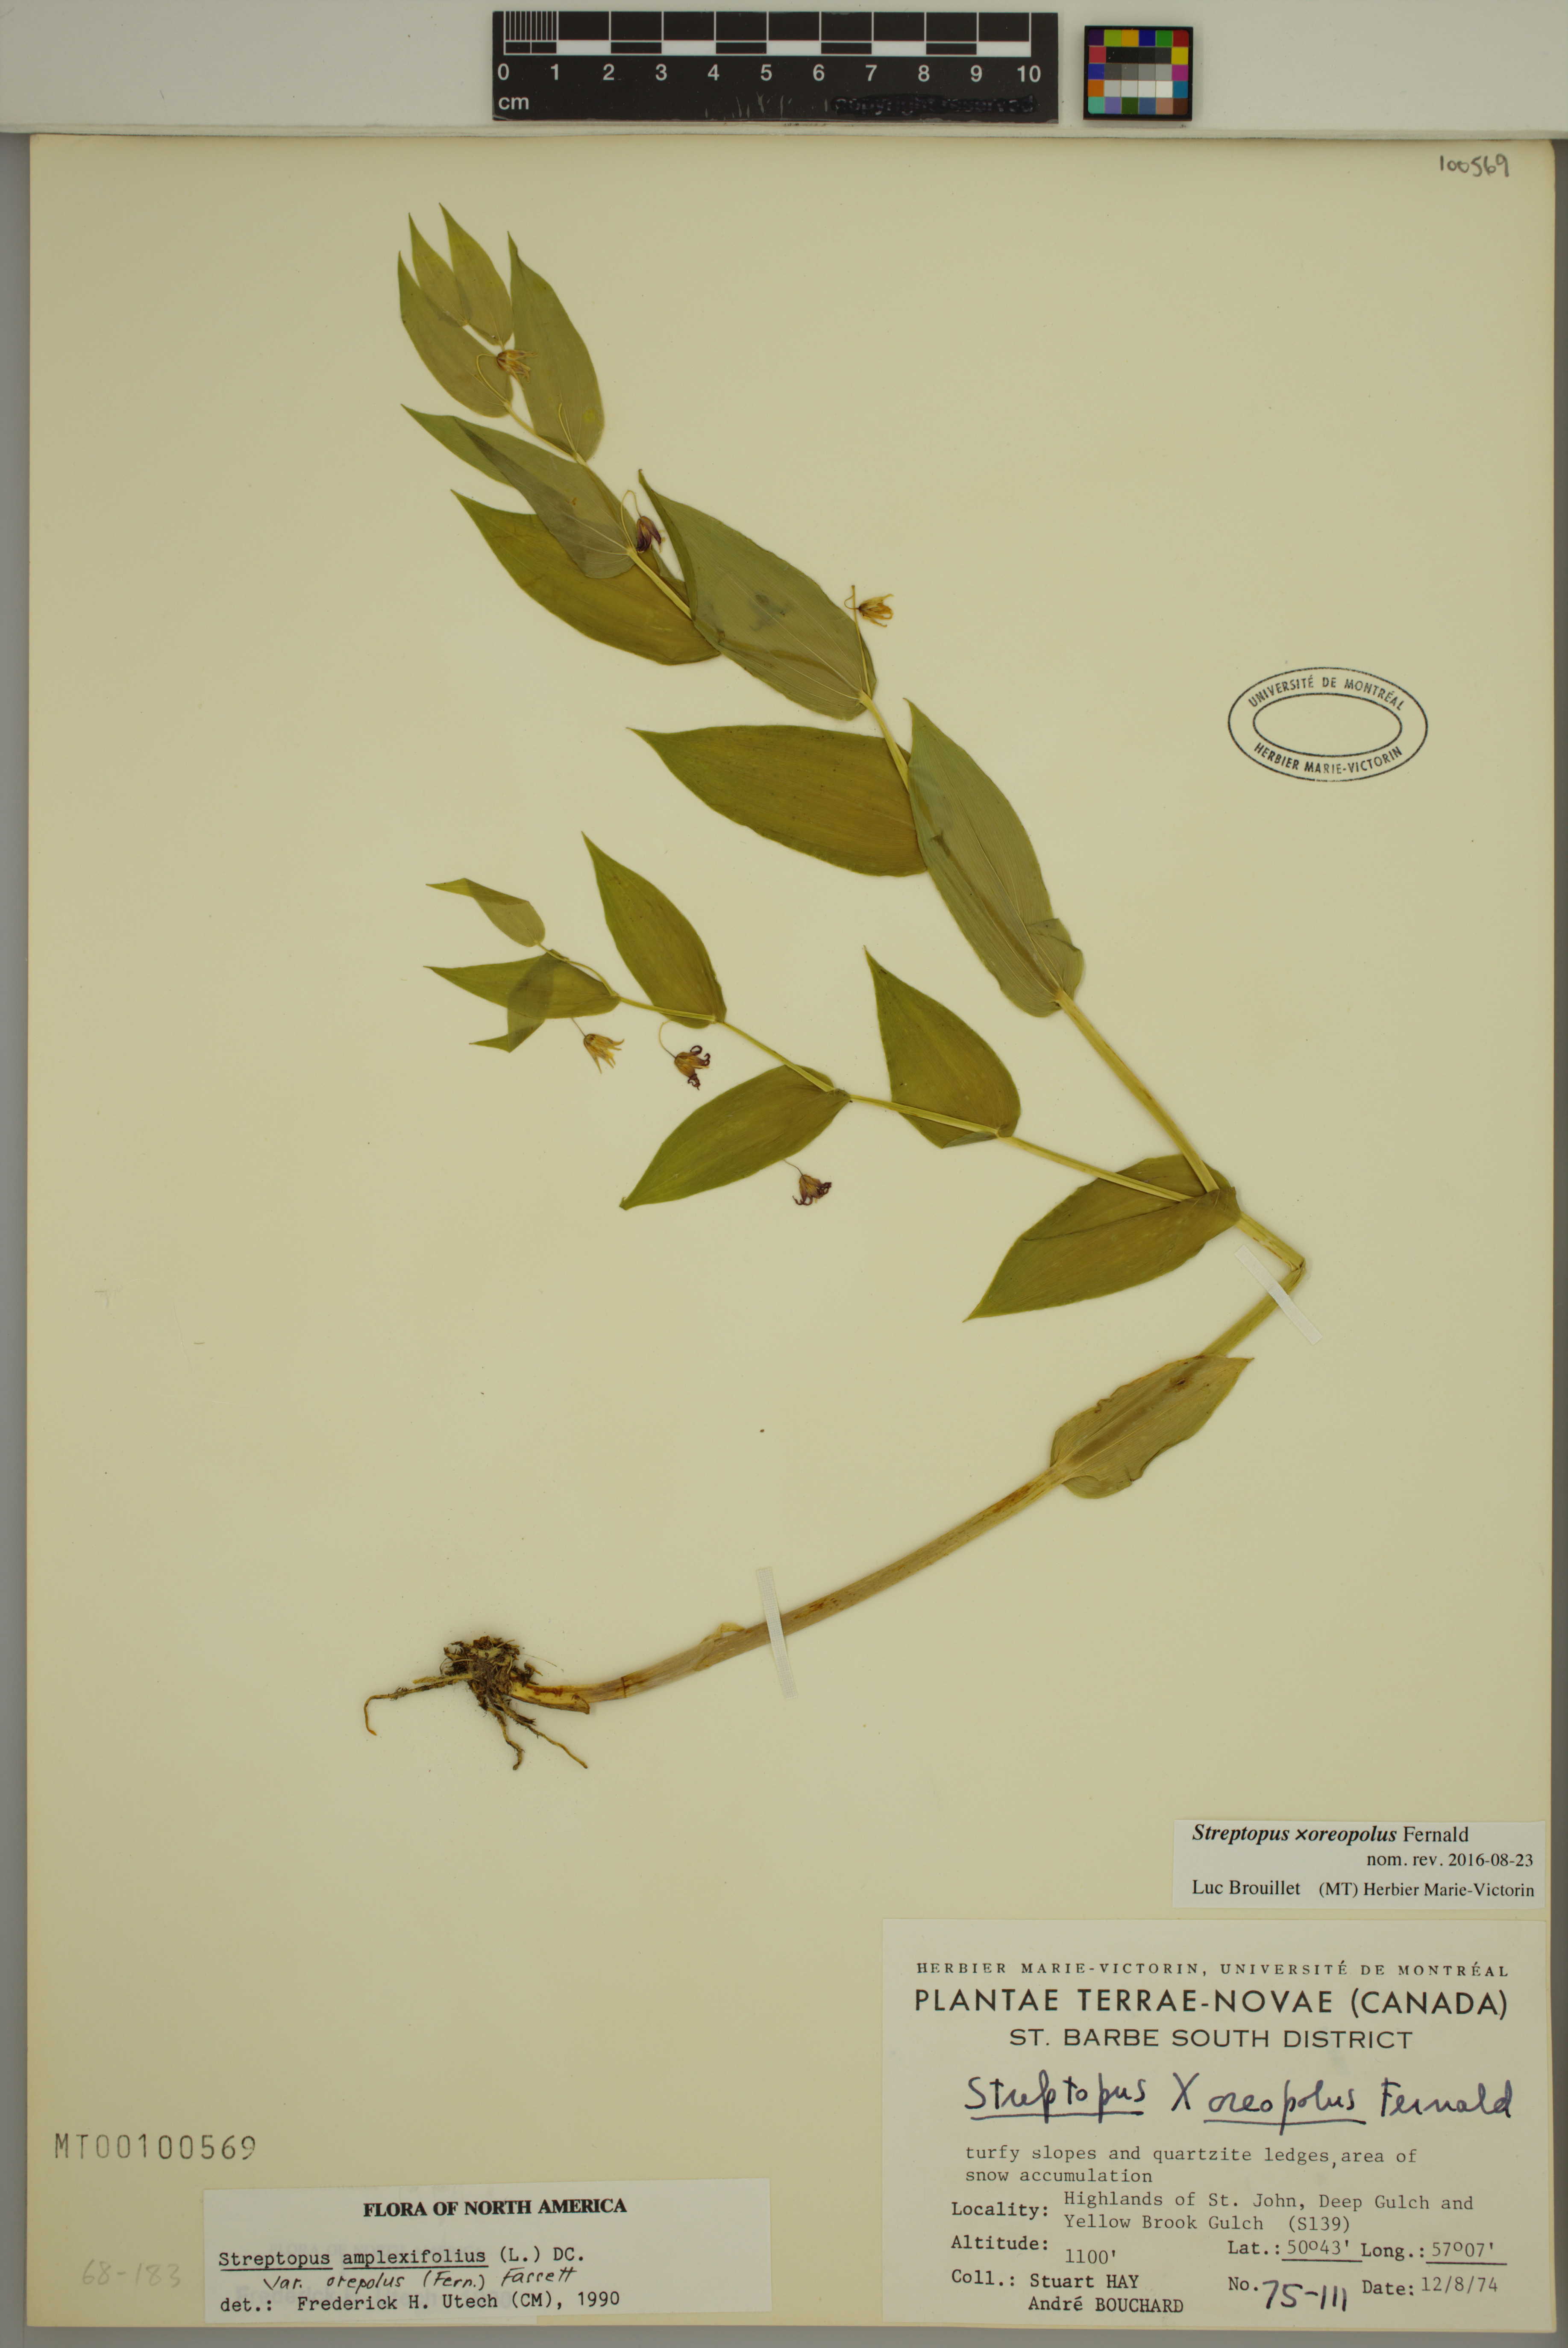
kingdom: Plantae
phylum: Tracheophyta
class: Liliopsida
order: Liliales
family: Liliaceae
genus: Streptopus
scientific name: Streptopus oreopolus
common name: Hybrid twisted-stalk
